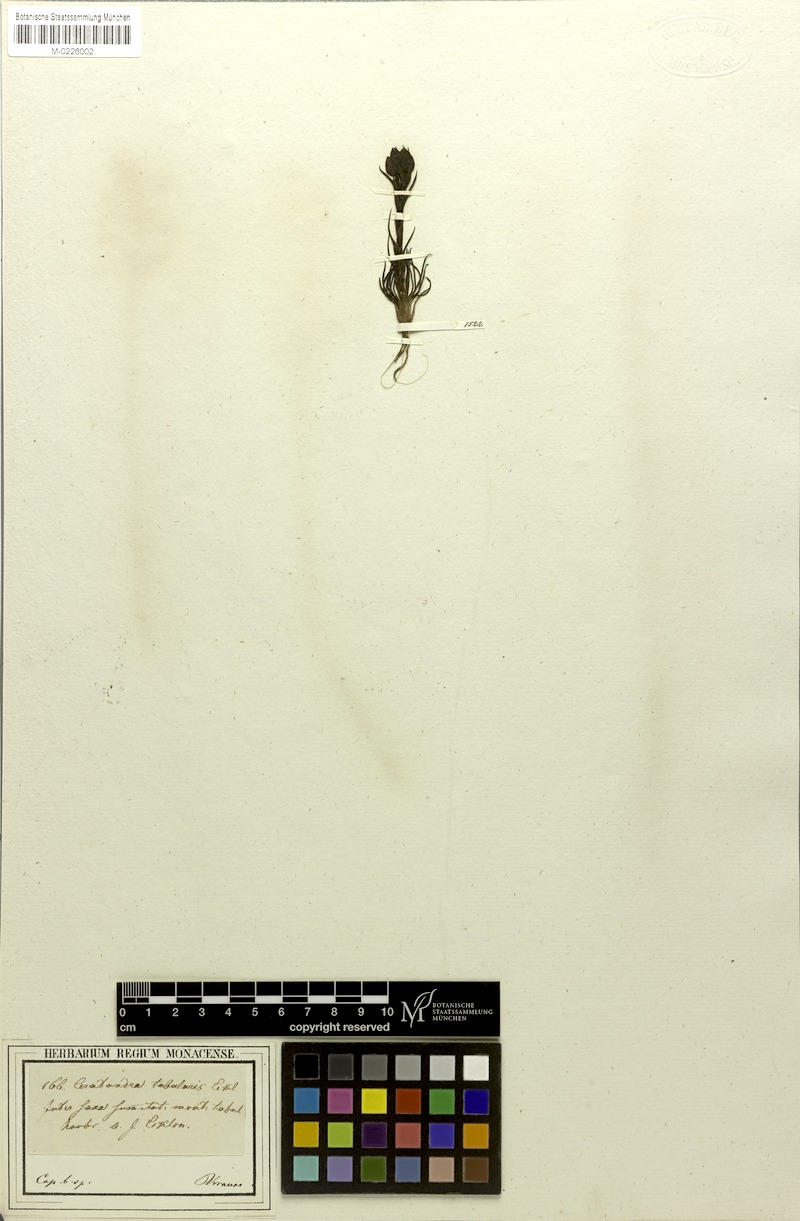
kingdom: Plantae
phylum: Tracheophyta
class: Liliopsida
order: Asparagales
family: Orchidaceae
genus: Ceratandra
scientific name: Ceratandra
